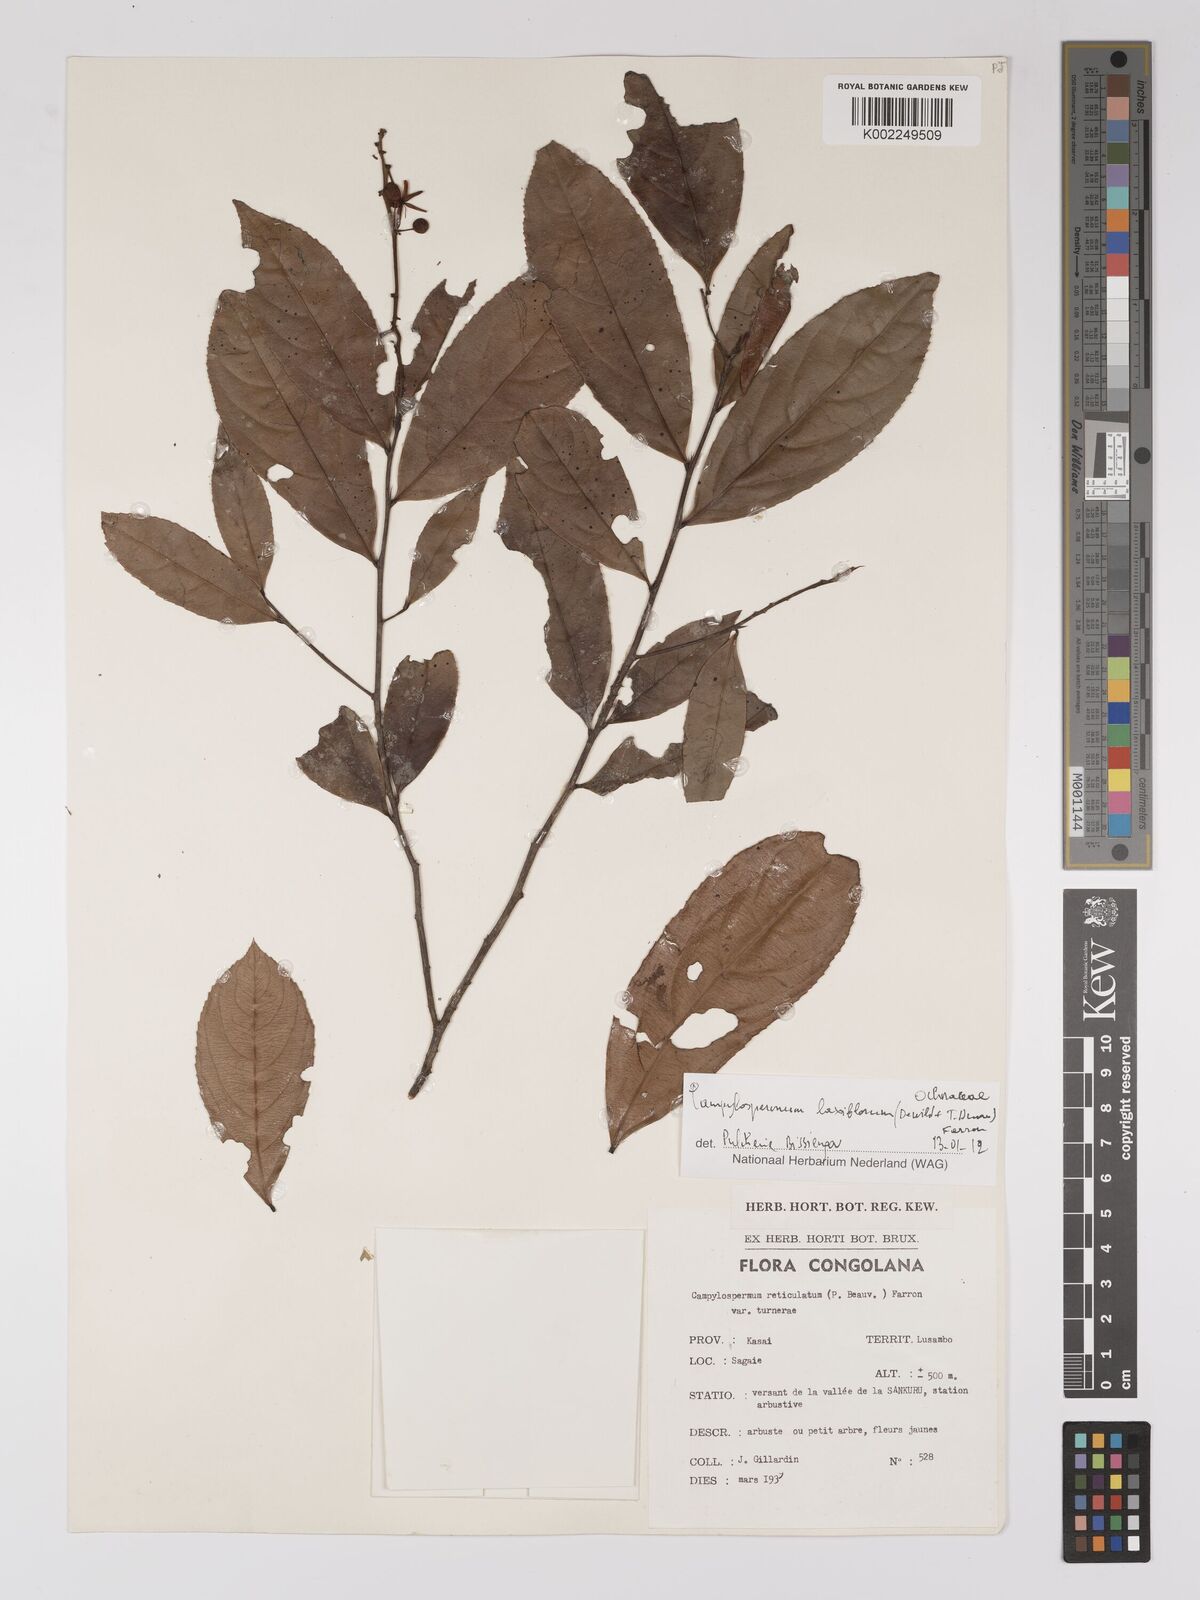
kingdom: Plantae
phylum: Tracheophyta
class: Magnoliopsida
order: Malpighiales
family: Ochnaceae
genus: Campylospermum
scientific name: Campylospermum laxiflorum
